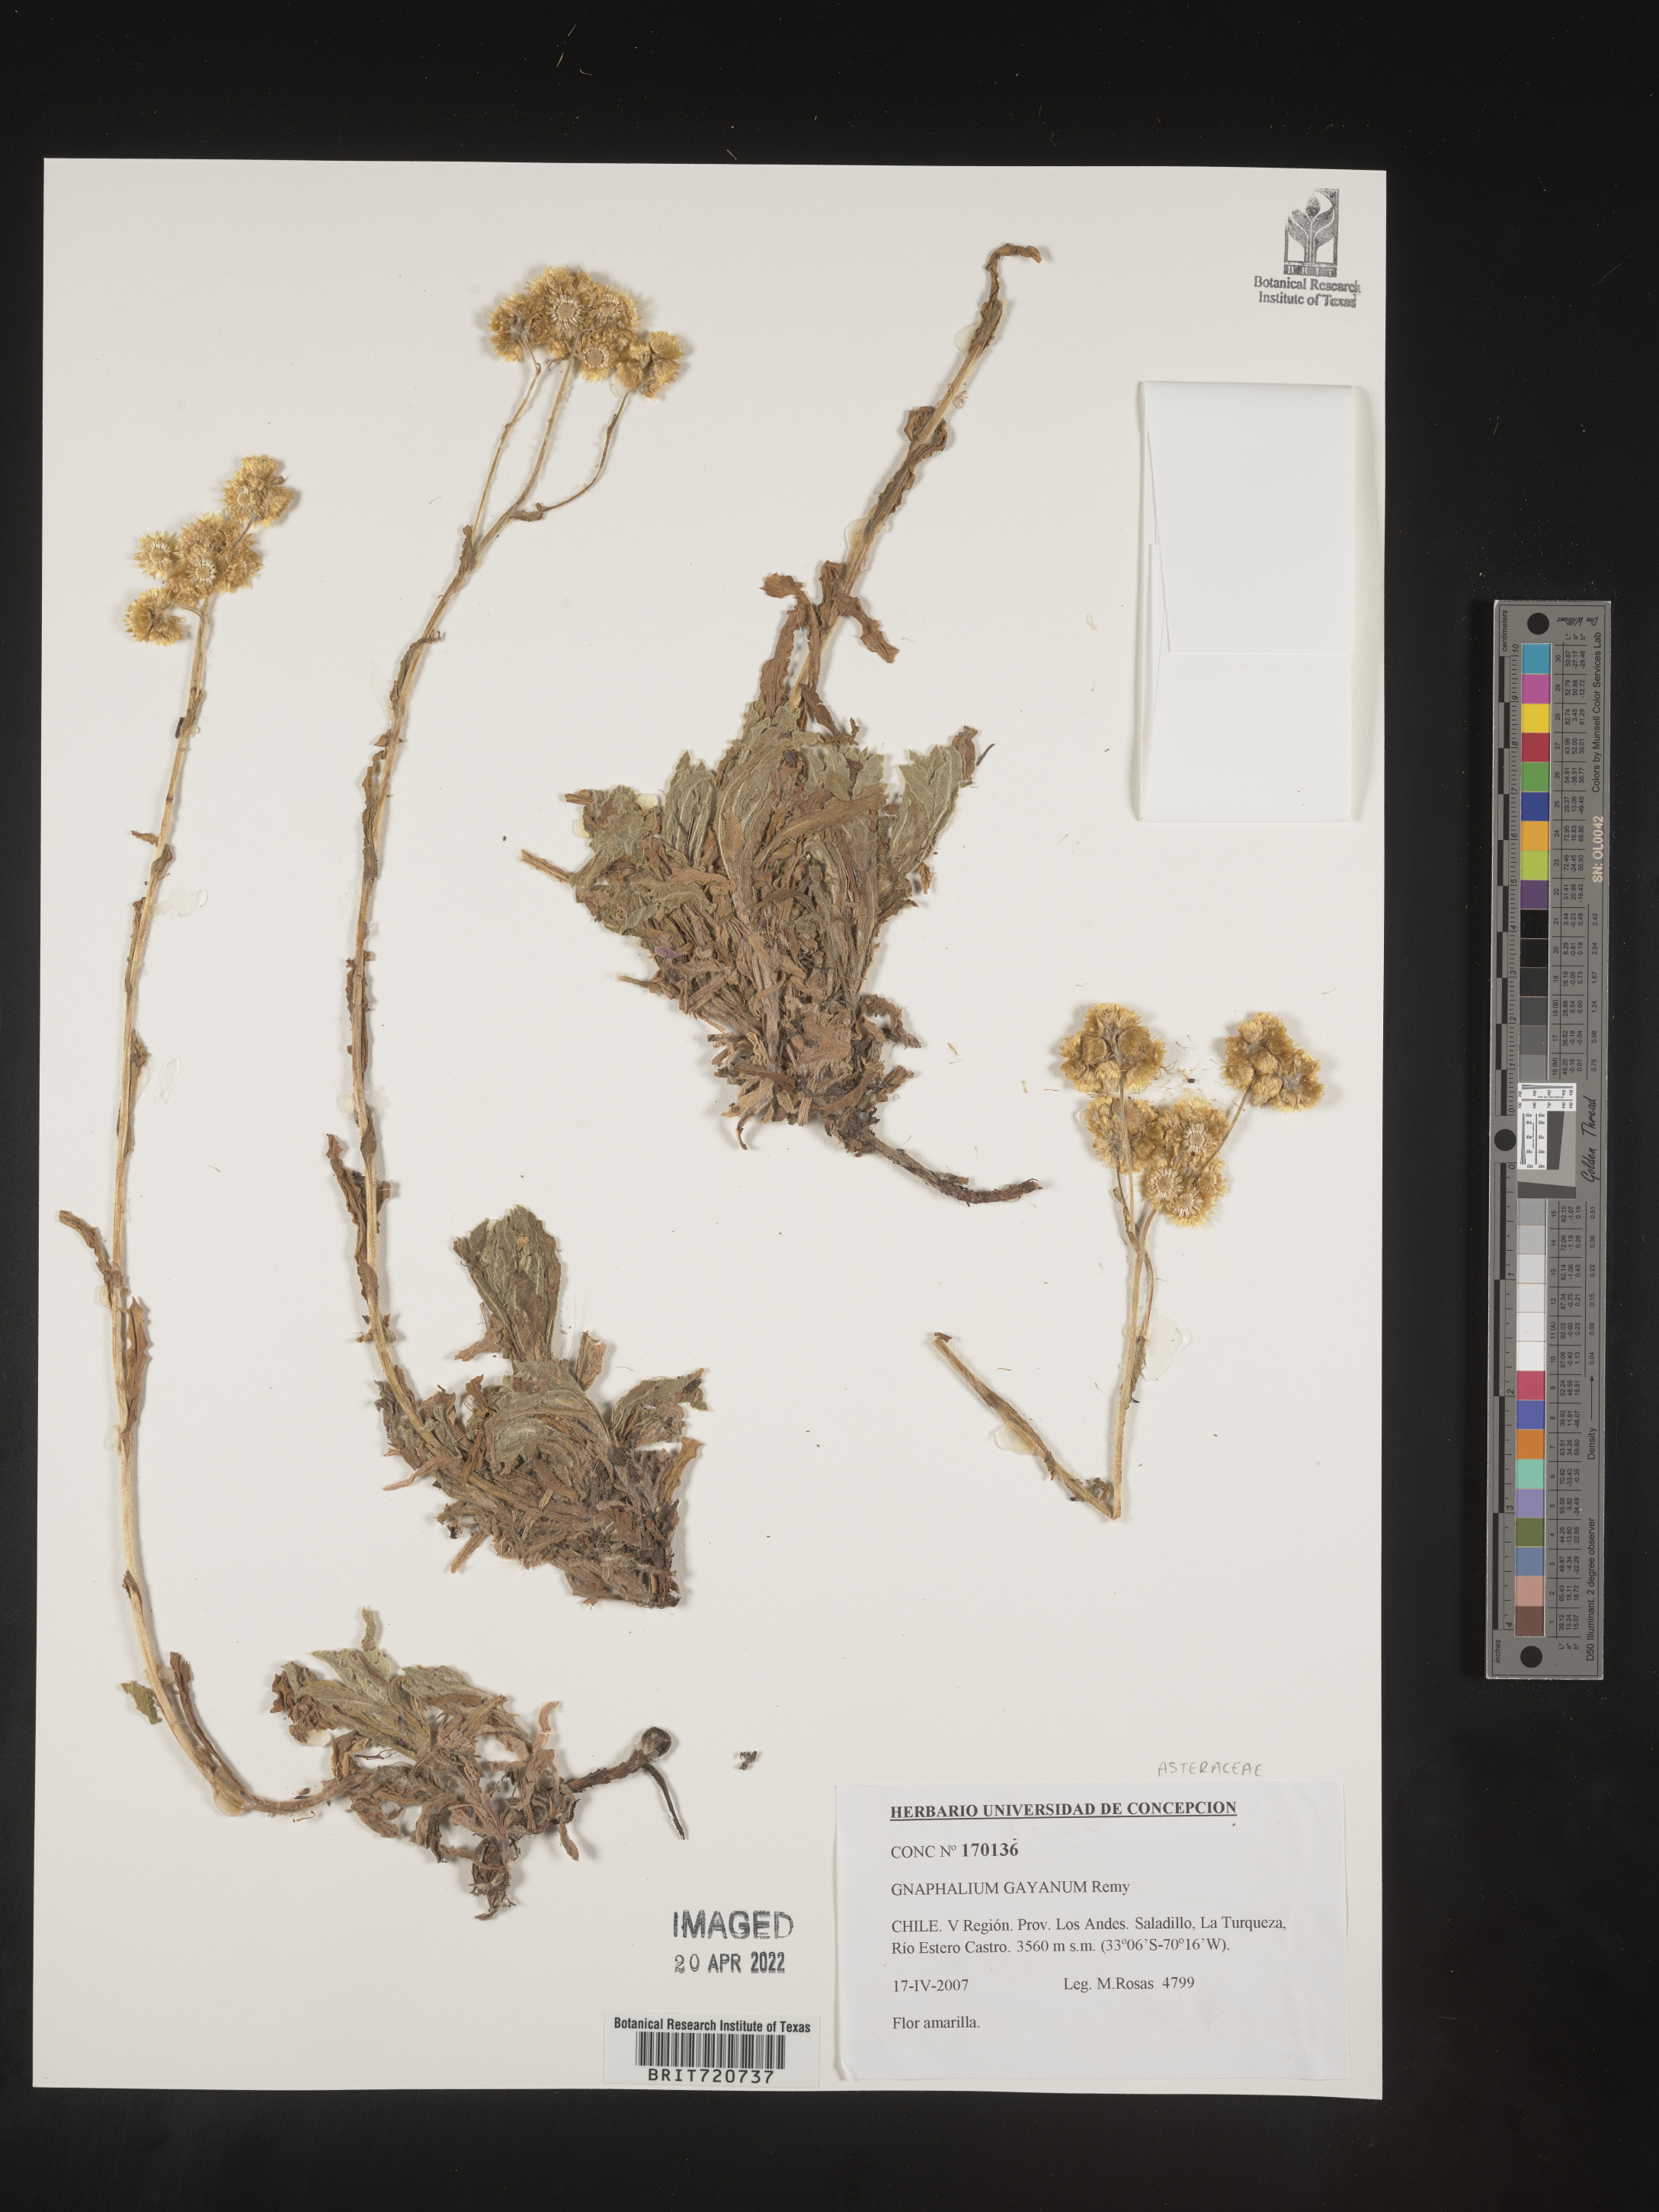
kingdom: Plantae
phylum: Tracheophyta
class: Magnoliopsida
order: Asterales
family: Asteraceae
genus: Gnaphalium
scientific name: Gnaphalium
